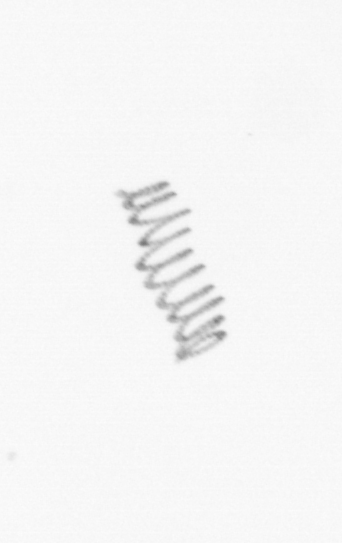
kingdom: Chromista
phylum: Ochrophyta
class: Bacillariophyceae
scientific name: Bacillariophyceae
